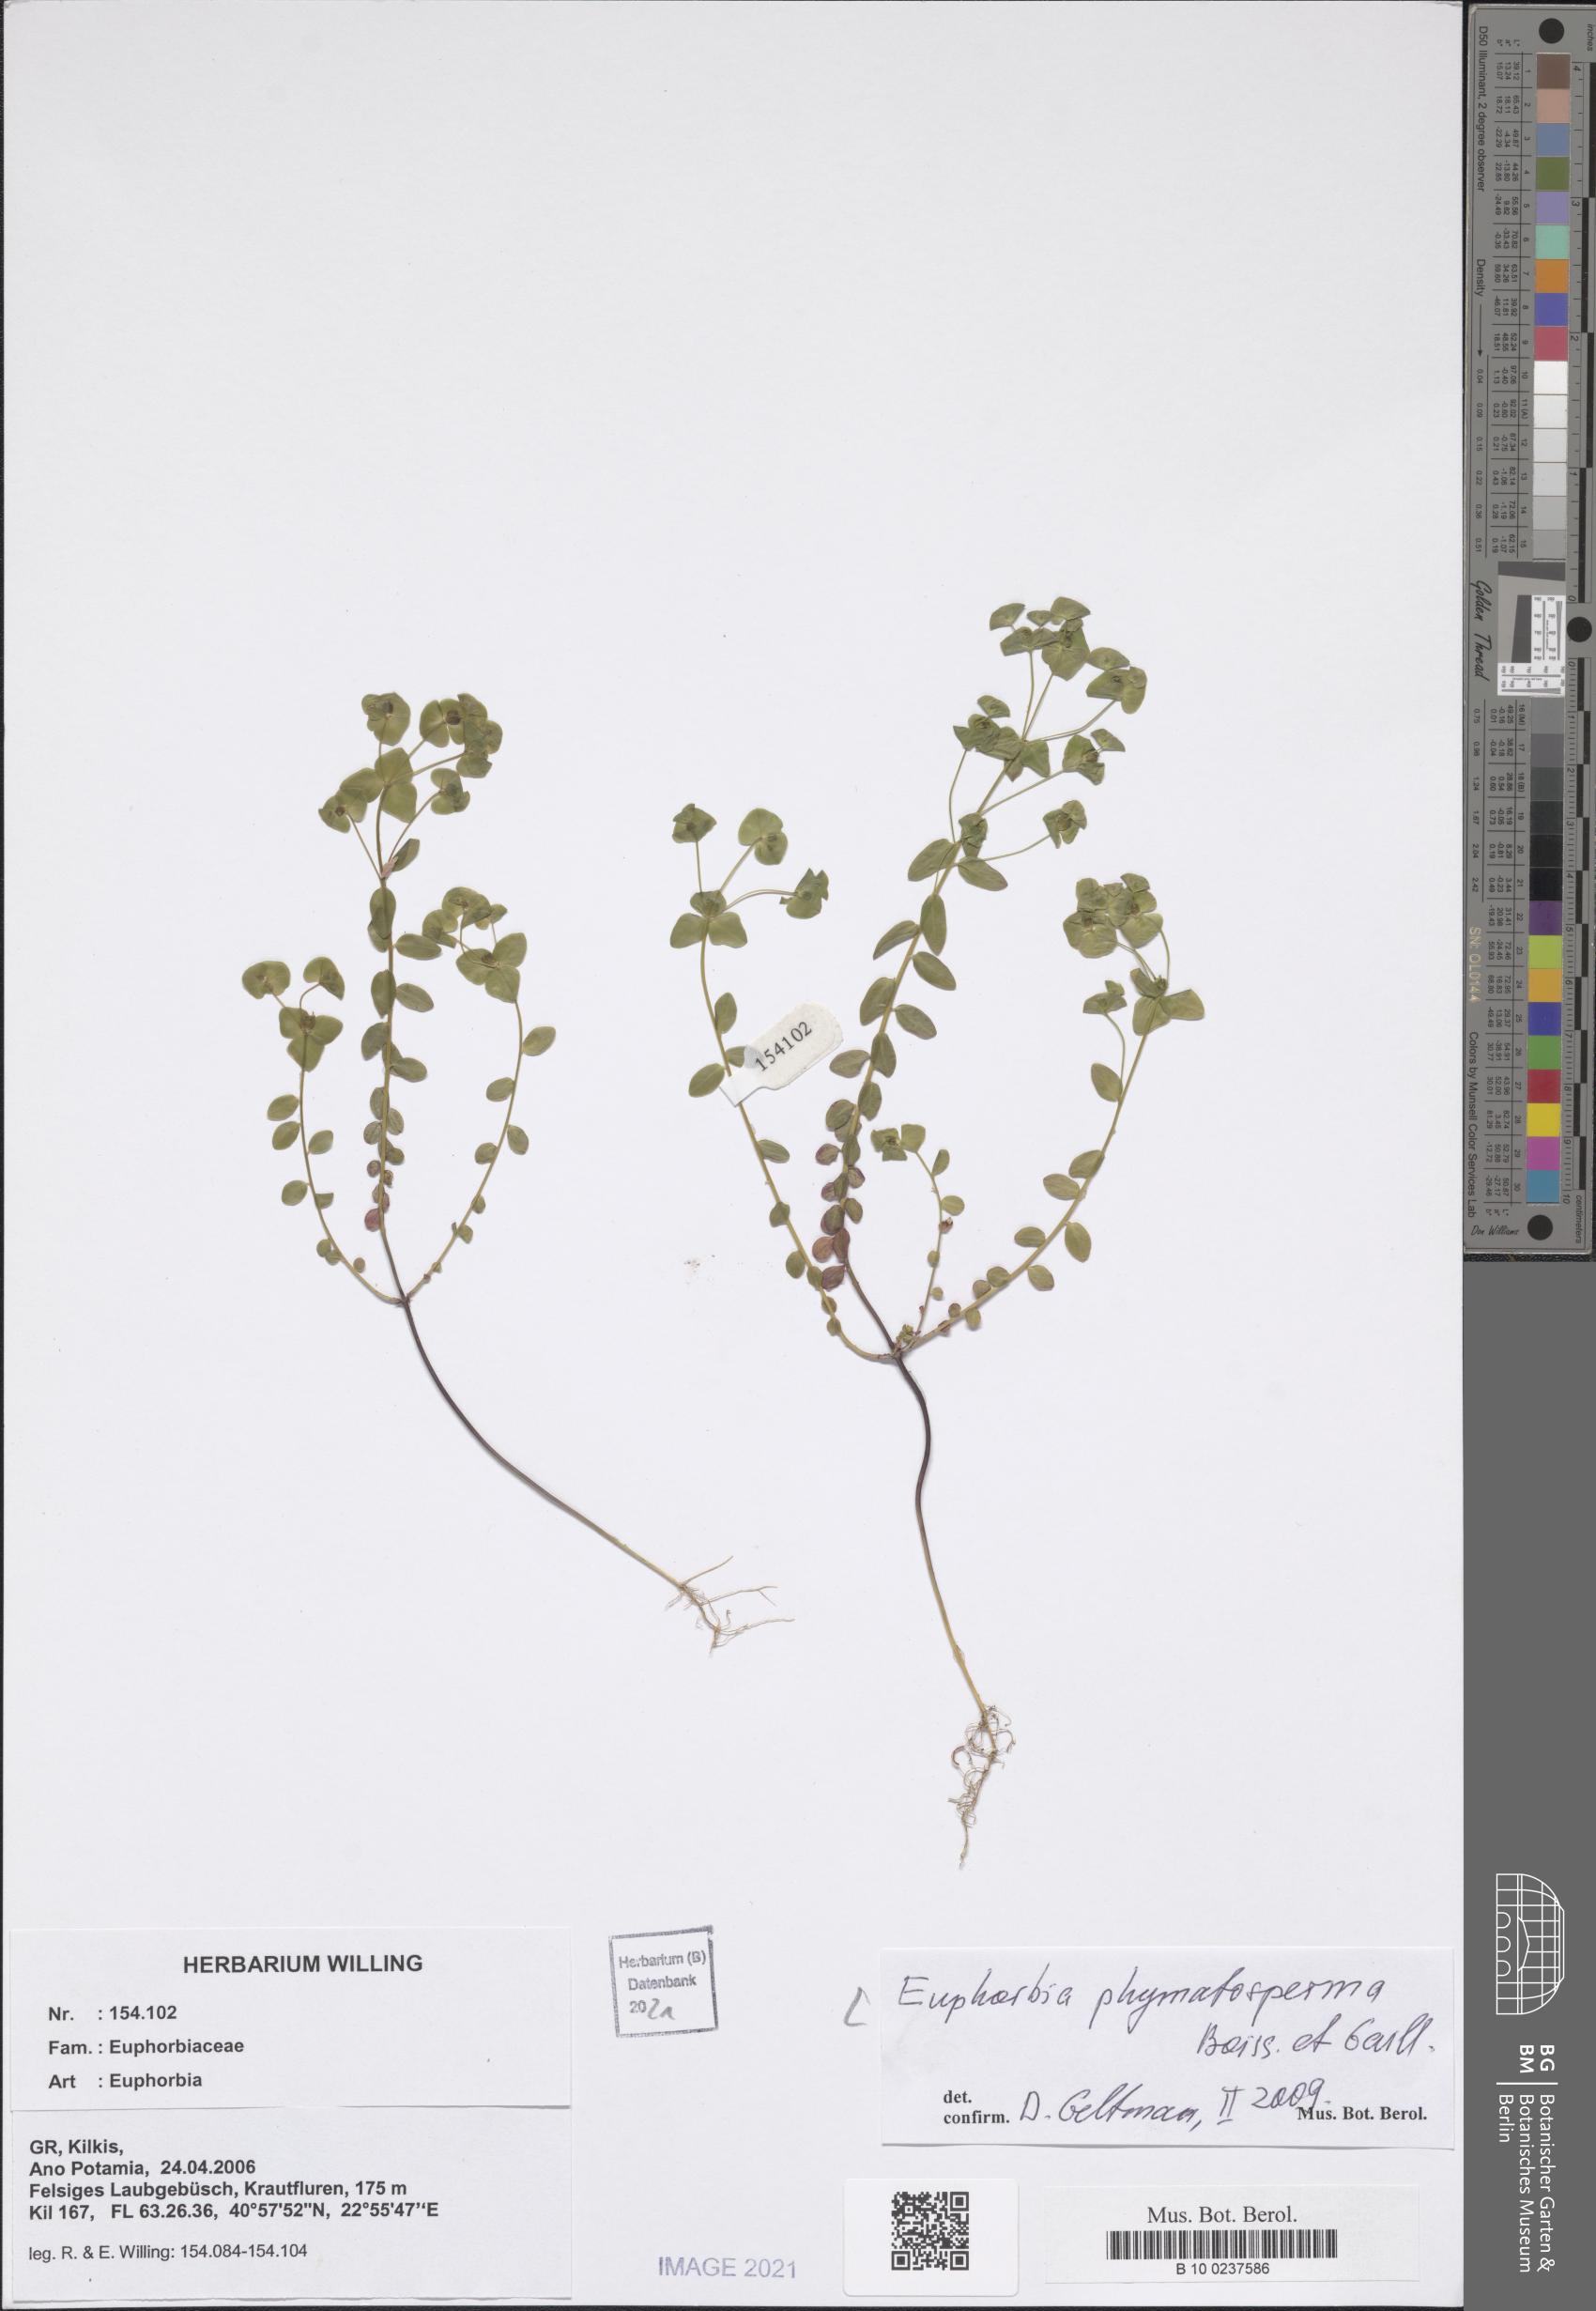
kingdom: Plantae
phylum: Tracheophyta
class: Magnoliopsida
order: Malpighiales
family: Euphorbiaceae
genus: Euphorbia
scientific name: Euphorbia phymatosperma
